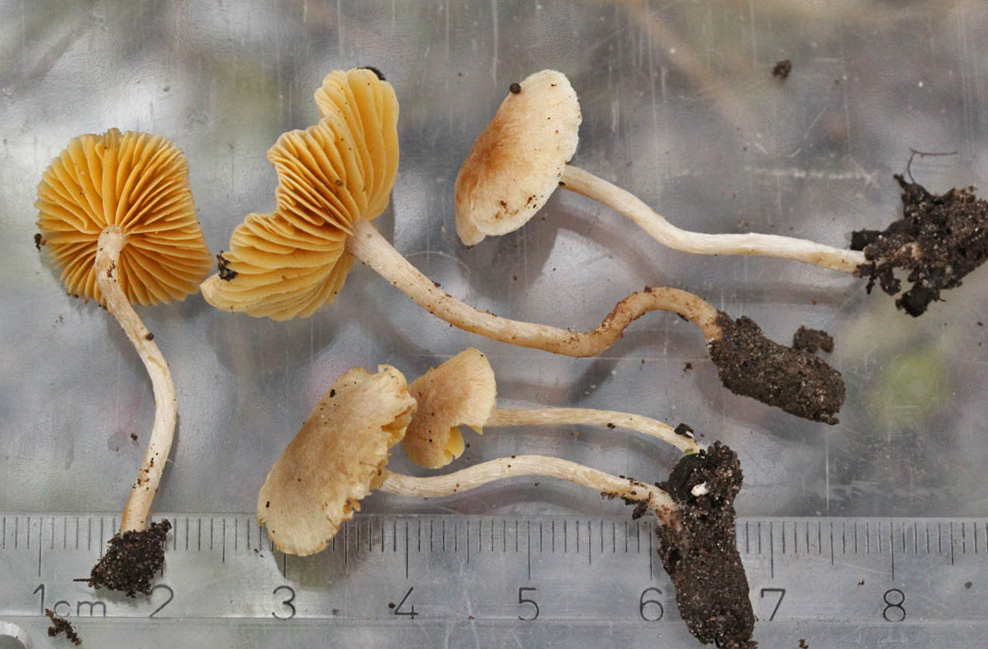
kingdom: Fungi
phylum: Basidiomycota
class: Agaricomycetes
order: Agaricales
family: Tubariaceae
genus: Tubaria
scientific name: Tubaria dispersa
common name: tjørne-fnughat
